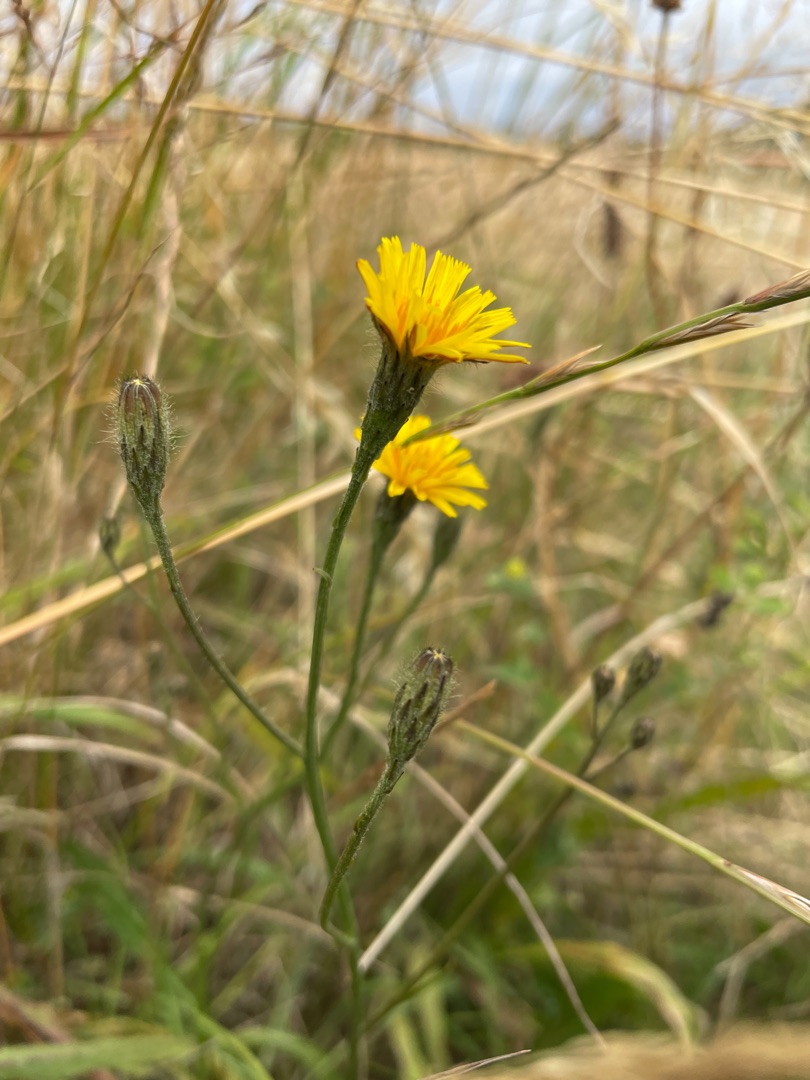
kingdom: Plantae
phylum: Tracheophyta
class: Magnoliopsida
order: Asterales
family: Asteraceae
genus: Scorzoneroides
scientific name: Scorzoneroides autumnalis
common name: Høst-borst
